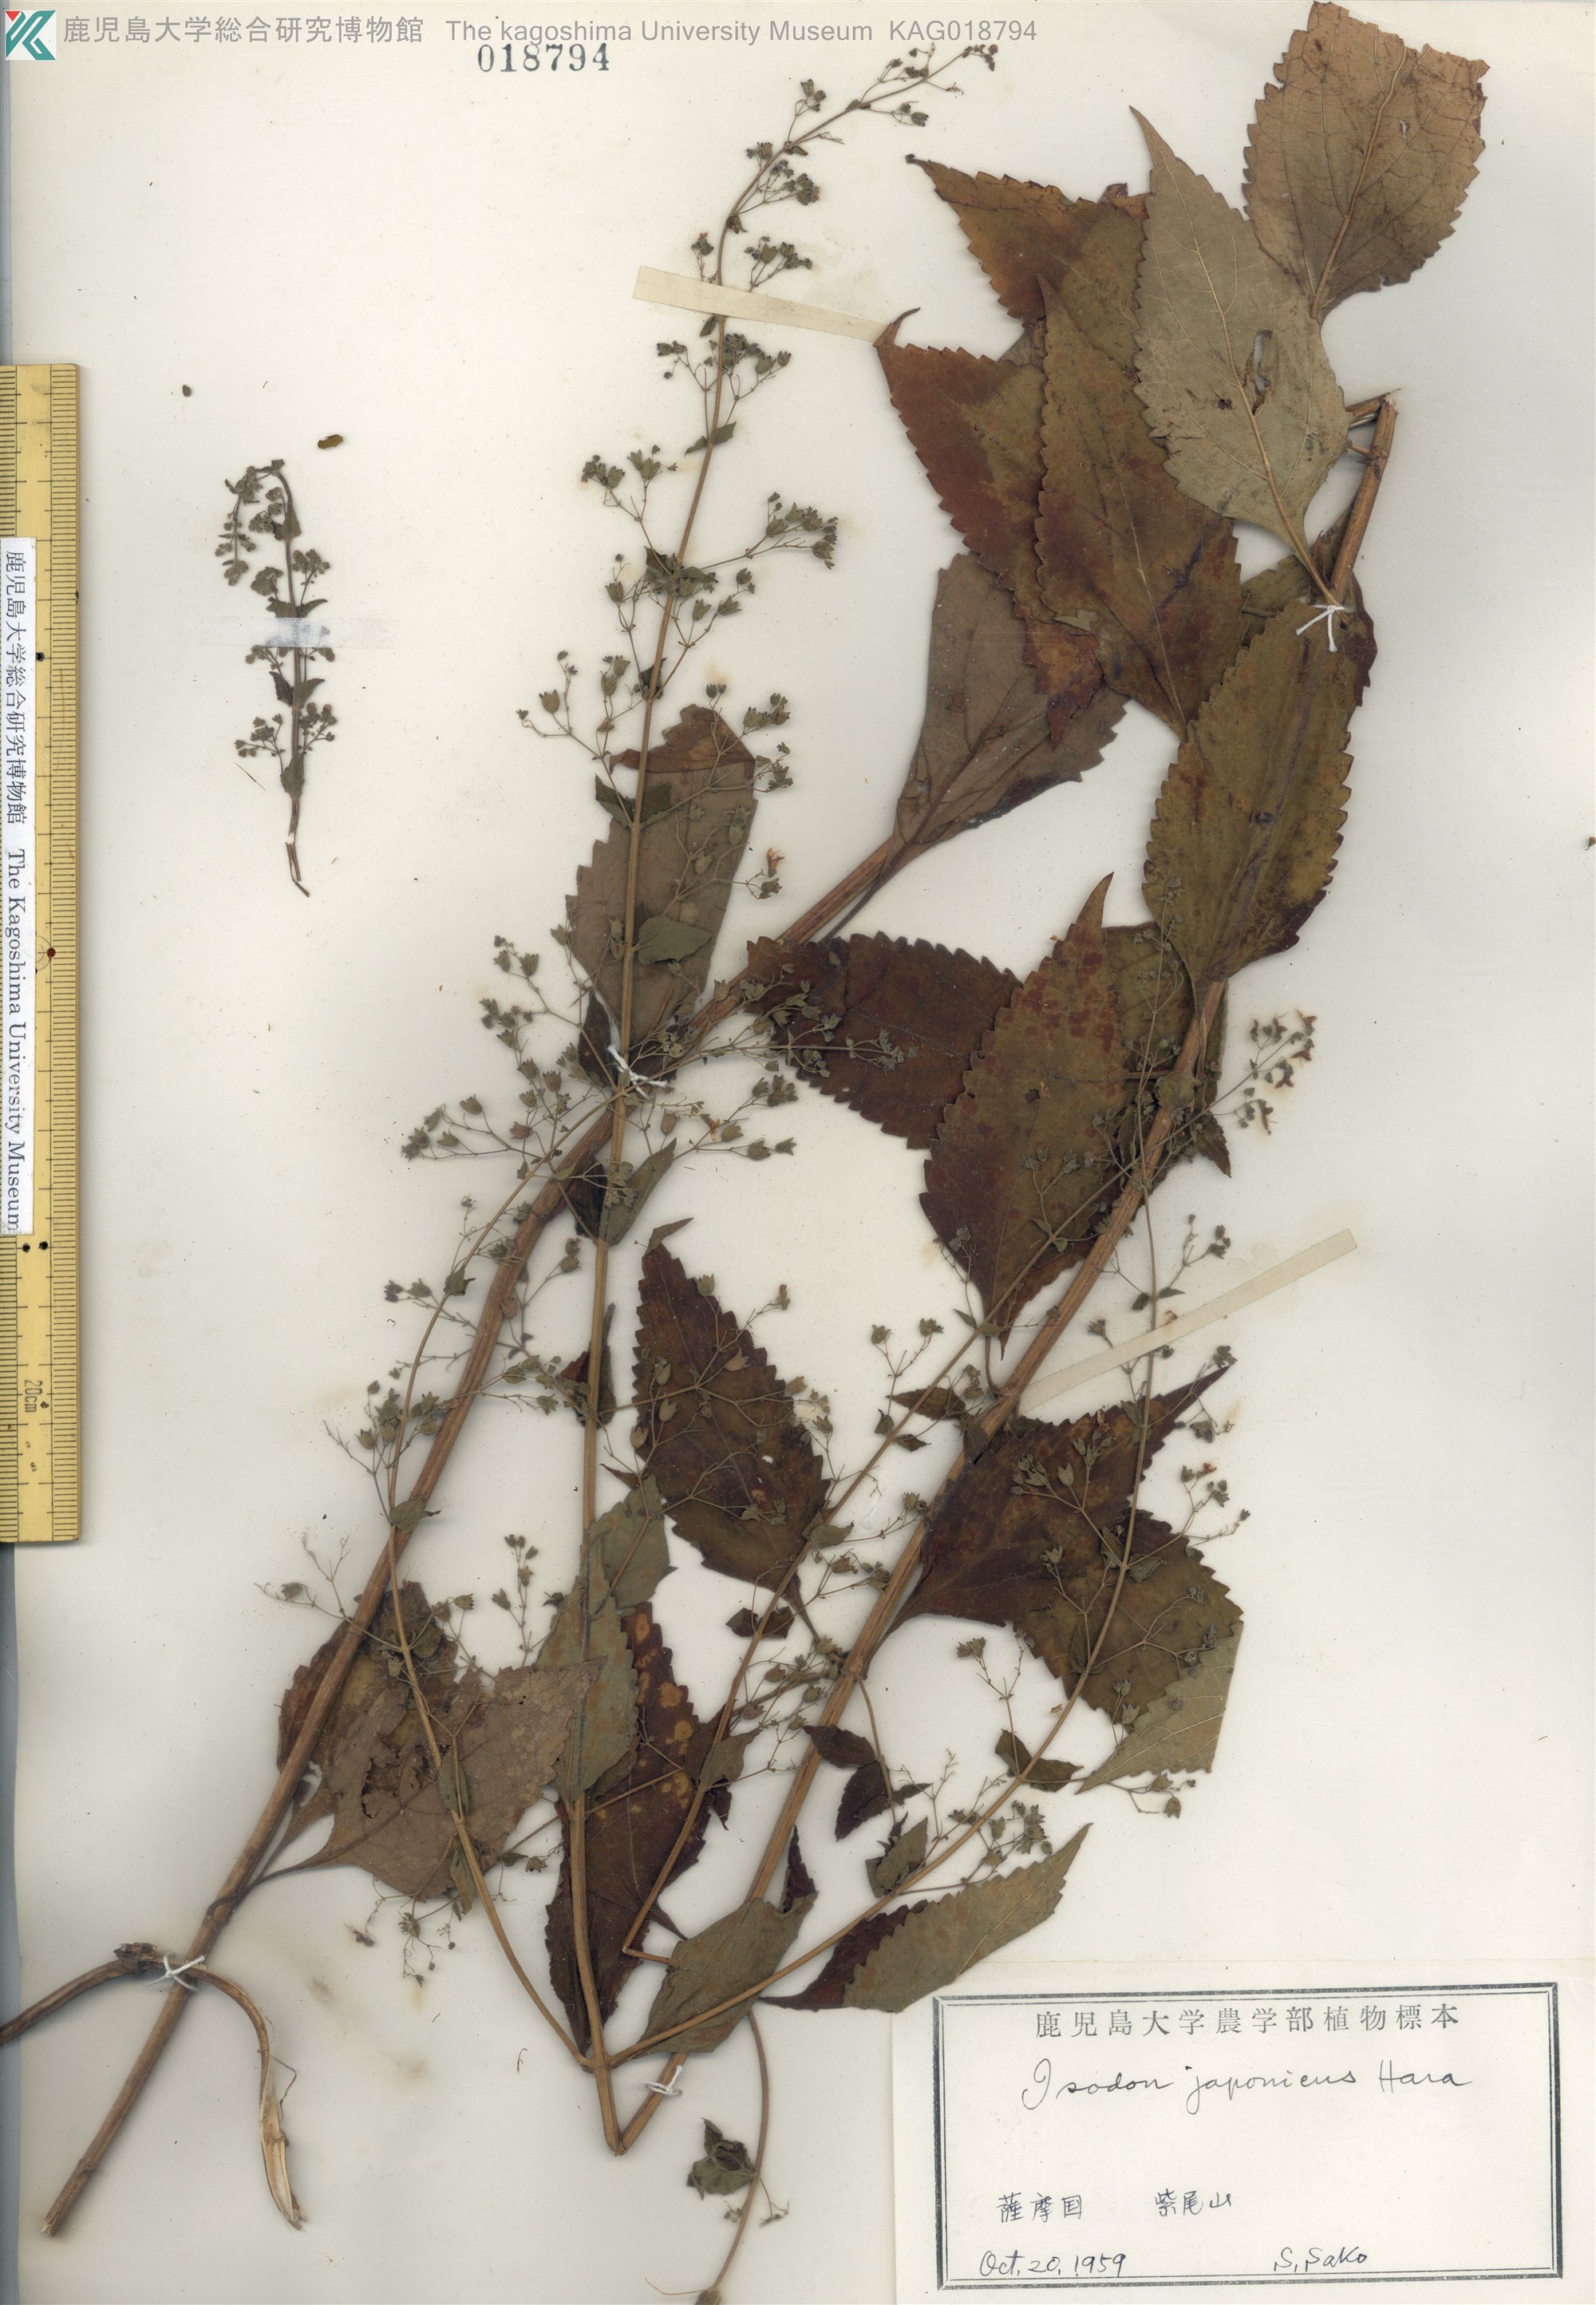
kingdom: Plantae
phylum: Tracheophyta
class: Magnoliopsida
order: Lamiales
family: Lamiaceae
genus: Isodon
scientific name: Isodon japonicus
